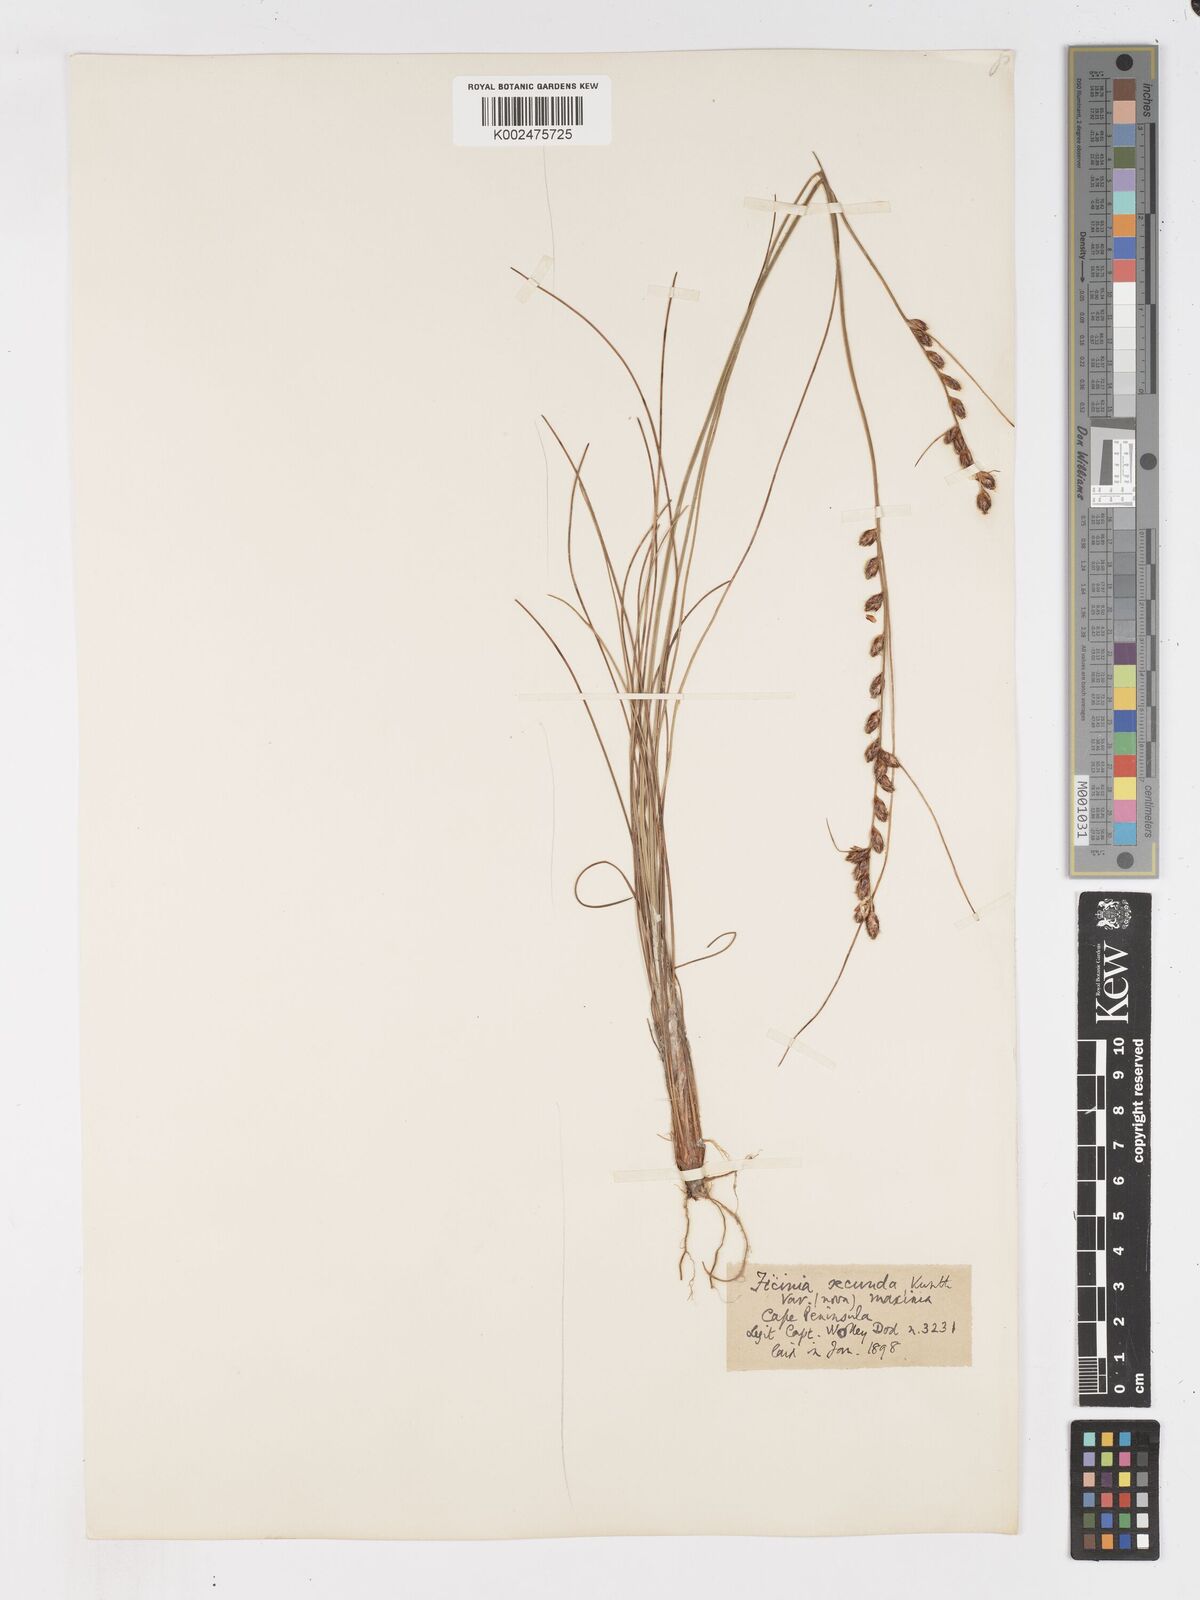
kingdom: Plantae
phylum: Tracheophyta
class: Liliopsida
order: Poales
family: Cyperaceae
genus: Ficinia
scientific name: Ficinia secunda
